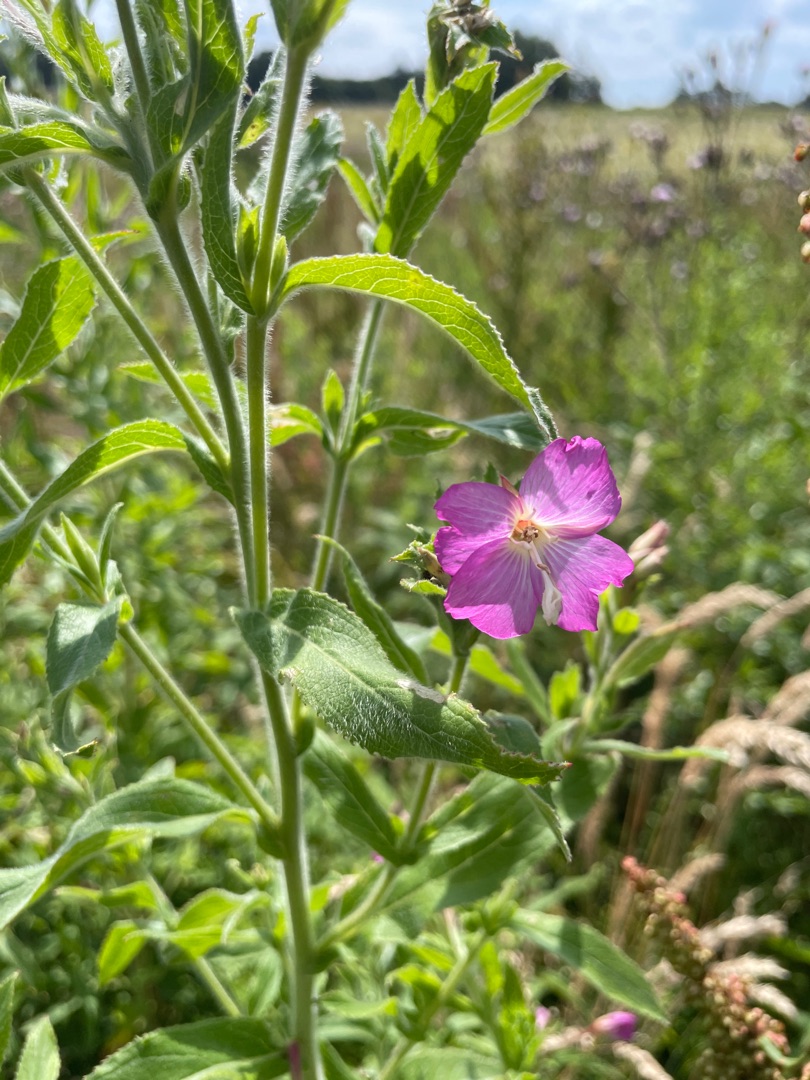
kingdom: Plantae
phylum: Tracheophyta
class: Magnoliopsida
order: Myrtales
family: Onagraceae
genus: Epilobium
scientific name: Epilobium hirsutum
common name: Lådden dueurt
